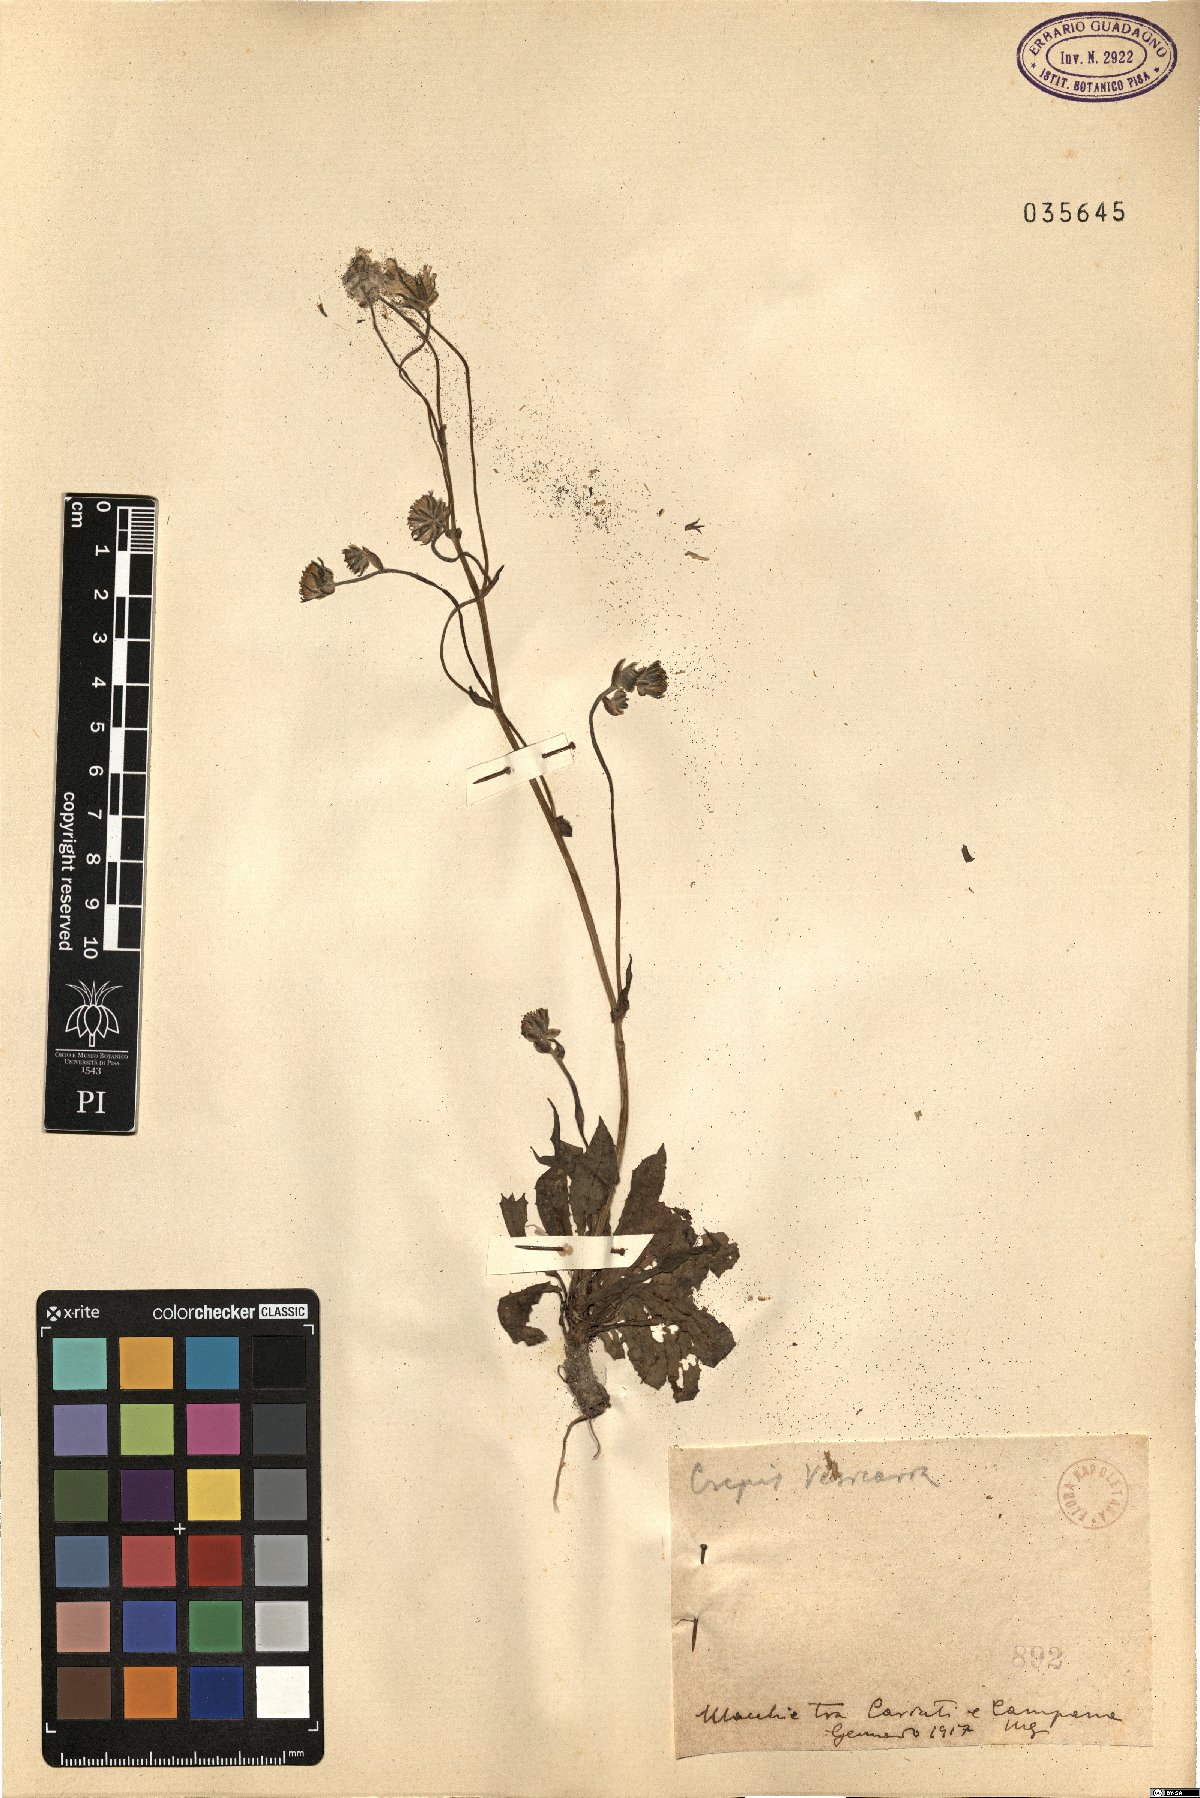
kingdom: Plantae
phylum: Tracheophyta
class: Magnoliopsida
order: Asterales
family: Asteraceae
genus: Crepis
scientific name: Crepis vesicaria
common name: Beaked hawksbeard
